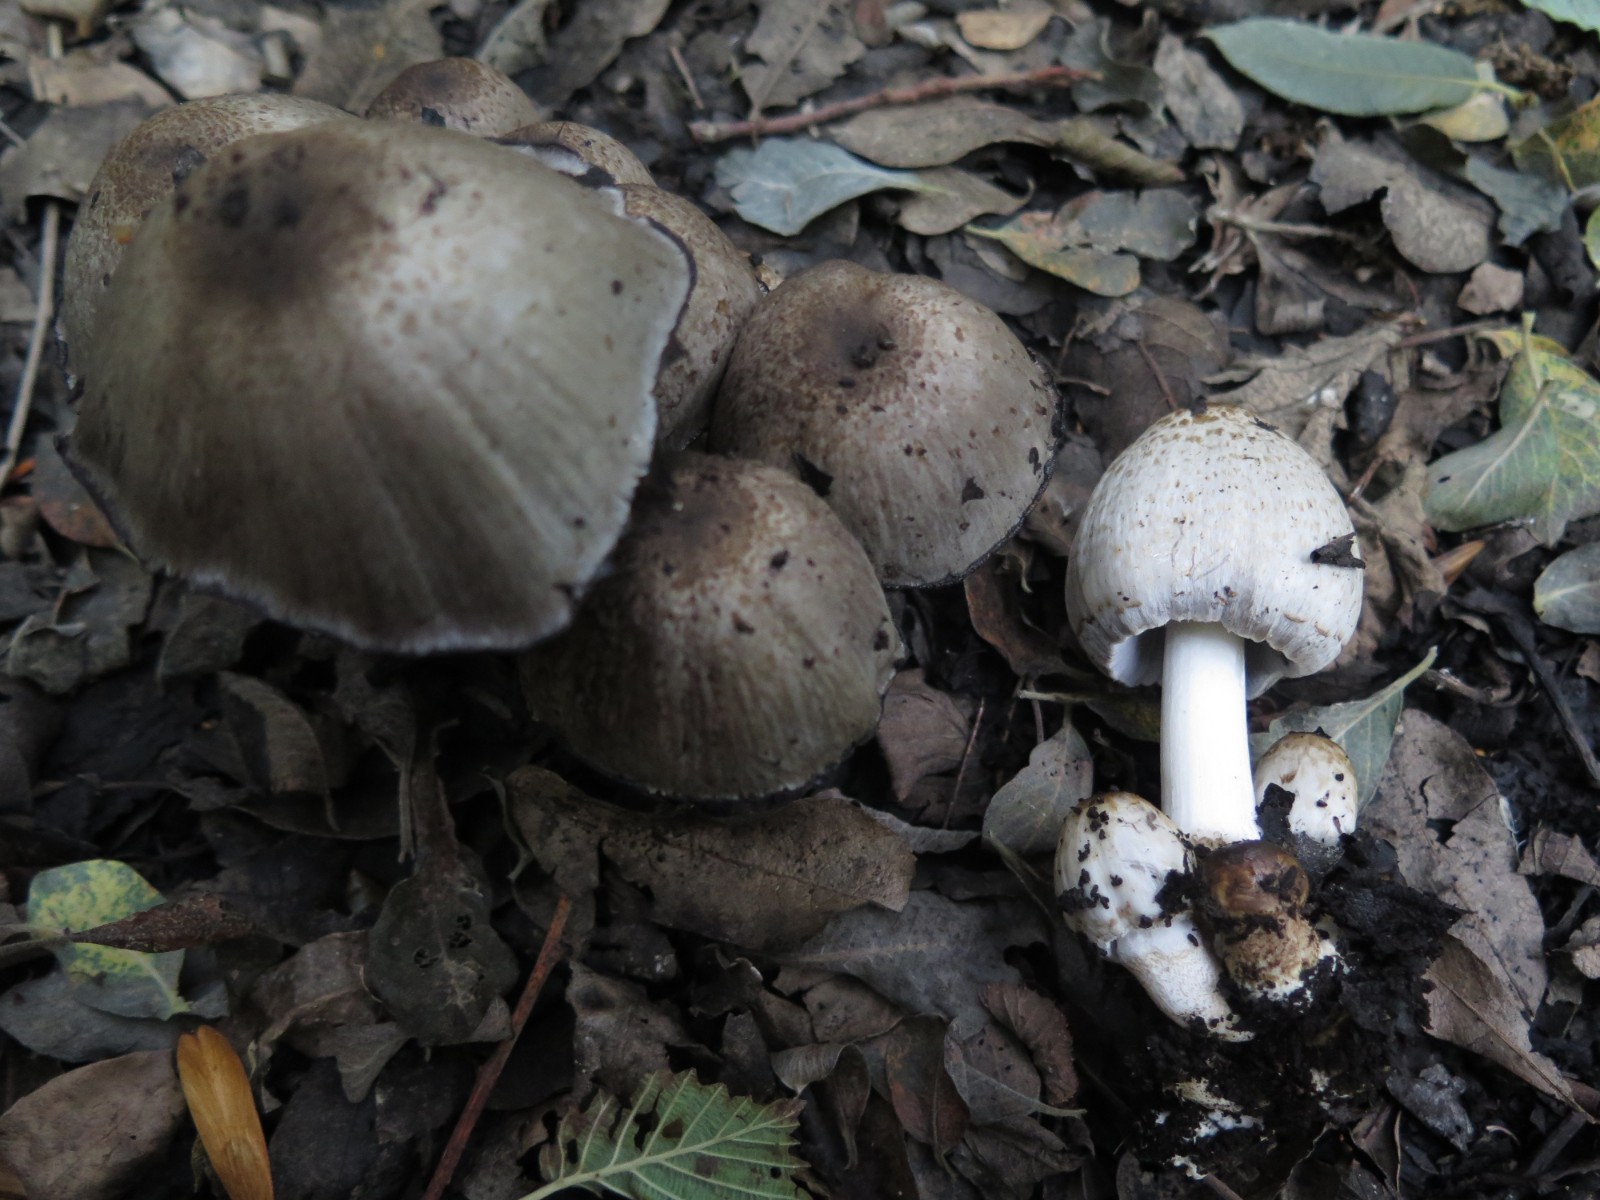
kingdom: Fungi
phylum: Basidiomycota
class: Agaricomycetes
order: Agaricales
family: Psathyrellaceae
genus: Coprinopsis
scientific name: Coprinopsis atramentaria
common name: almindelig blækhat
